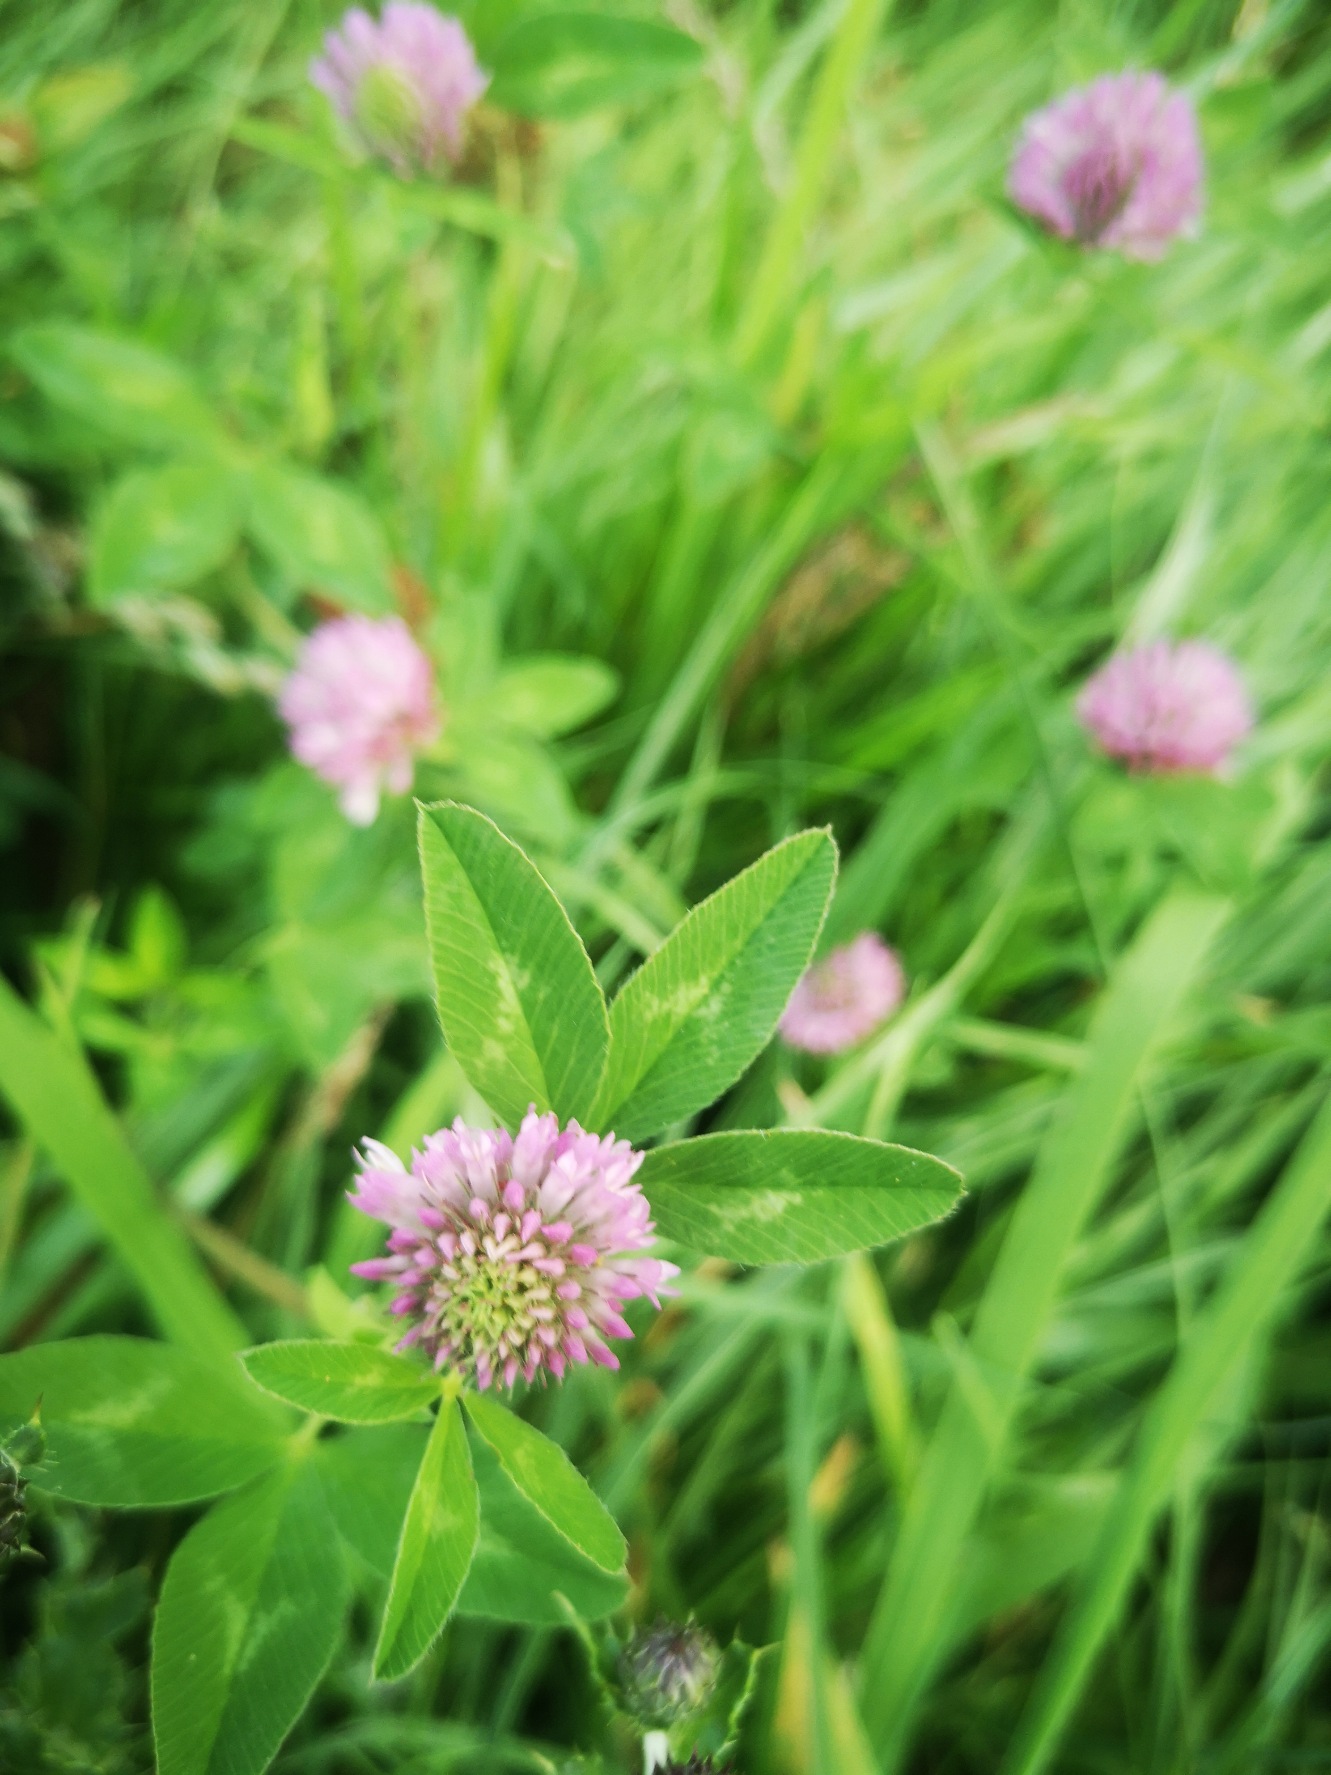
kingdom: Plantae
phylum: Tracheophyta
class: Magnoliopsida
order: Fabales
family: Fabaceae
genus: Trifolium
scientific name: Trifolium pratense
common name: Rød-kløver
